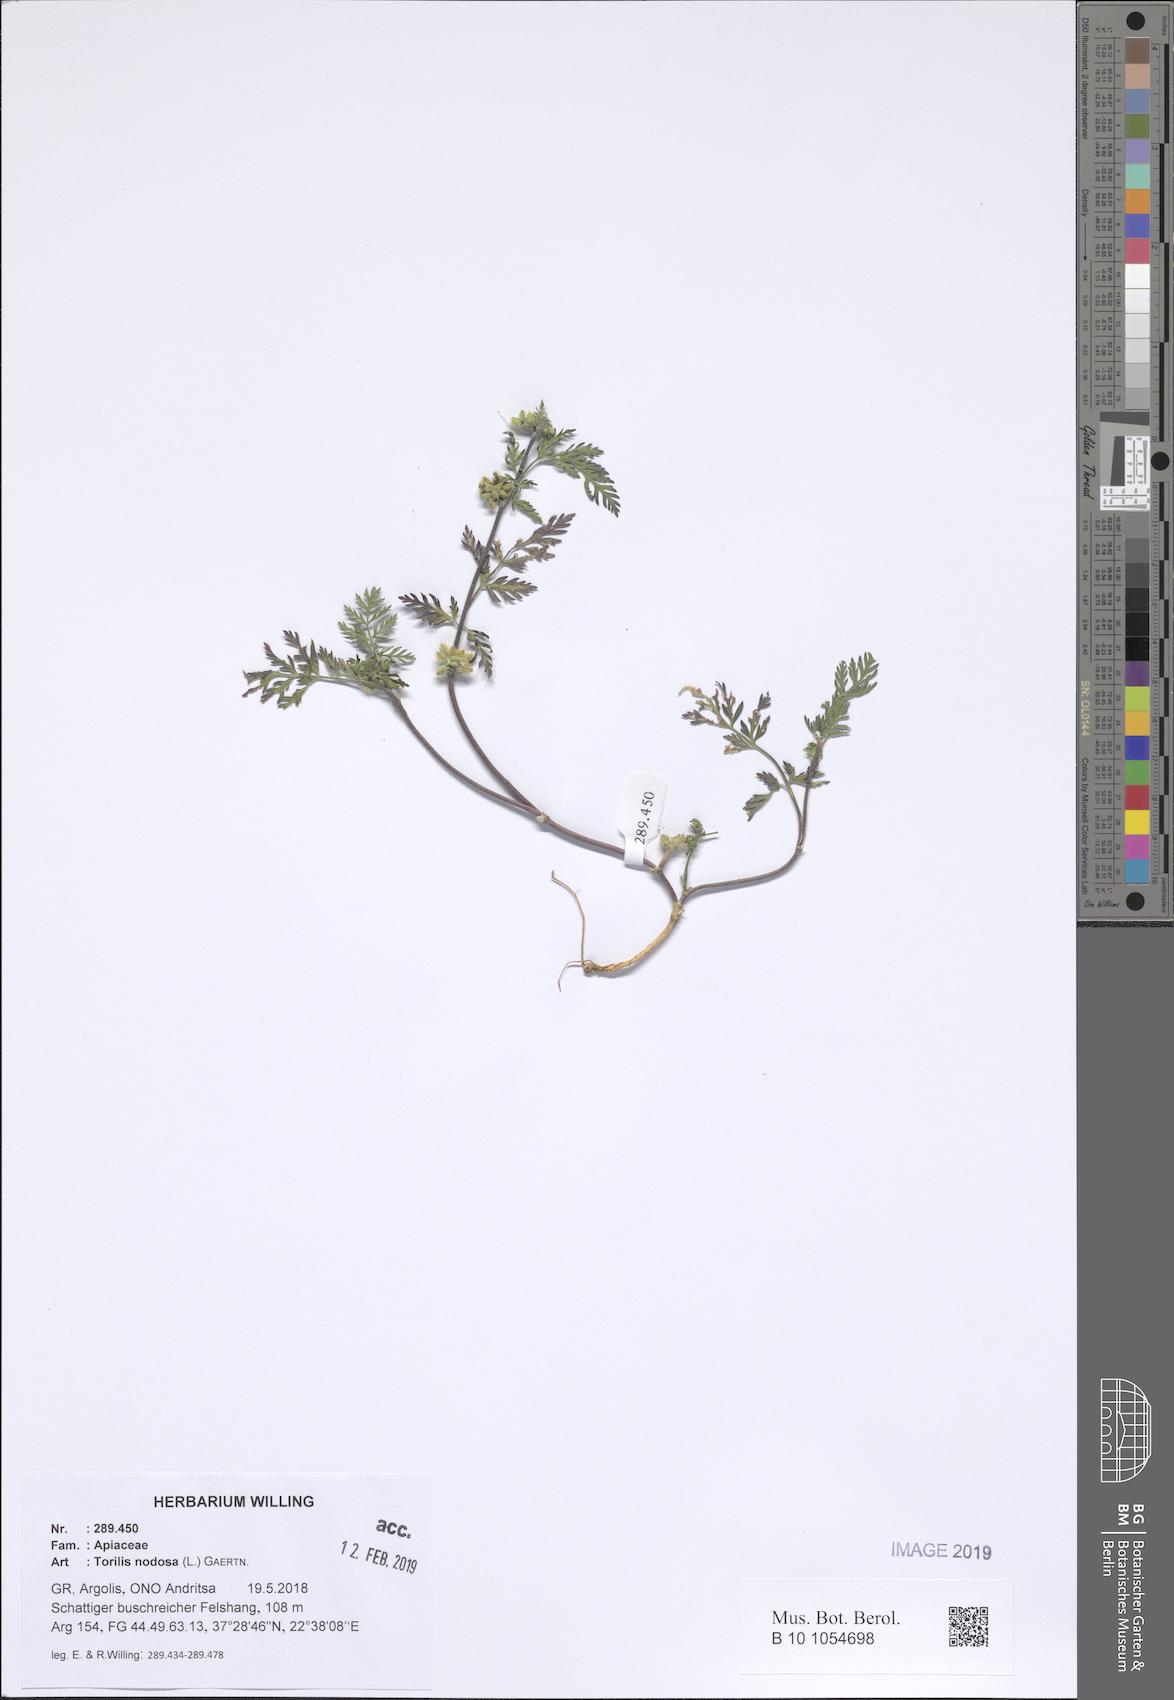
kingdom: Plantae
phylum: Tracheophyta
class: Magnoliopsida
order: Apiales
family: Apiaceae
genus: Torilis
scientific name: Torilis nodosa
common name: Knotted hedge-parsley
